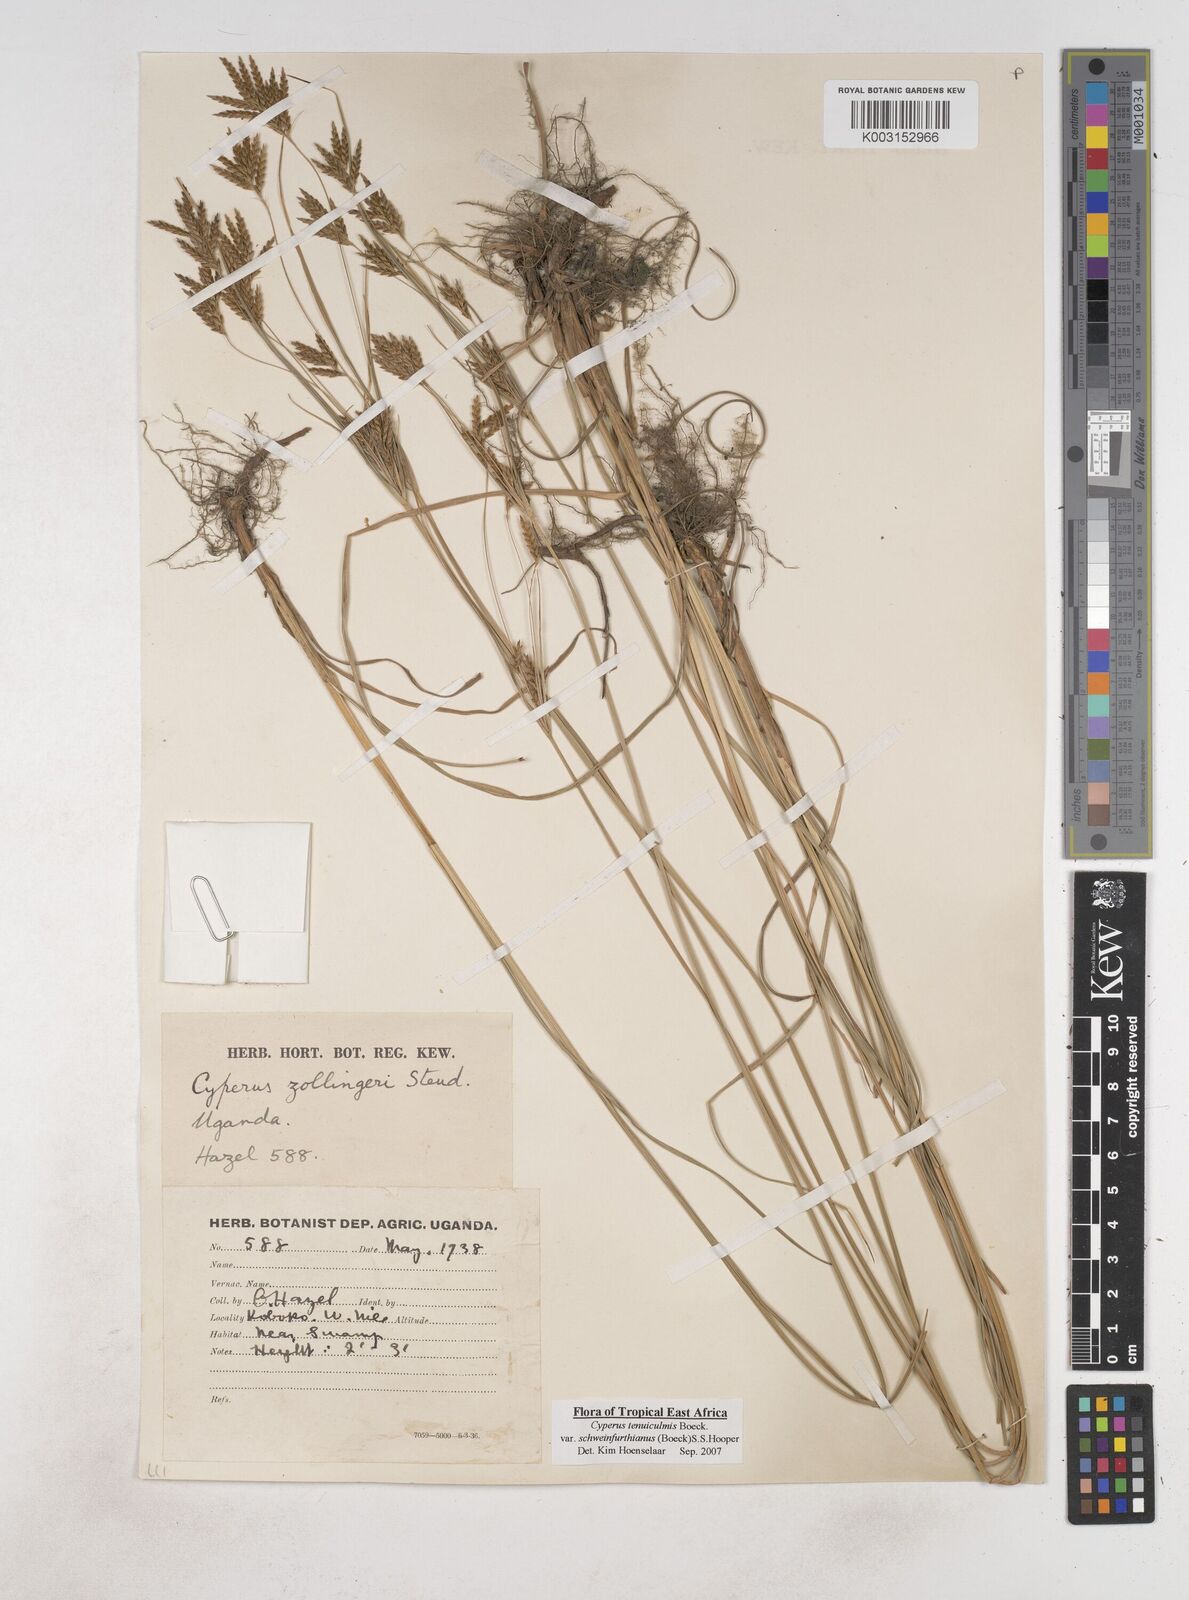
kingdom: Plantae
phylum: Tracheophyta
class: Liliopsida
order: Poales
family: Cyperaceae
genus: Cyperus
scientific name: Cyperus tenuiculmis
